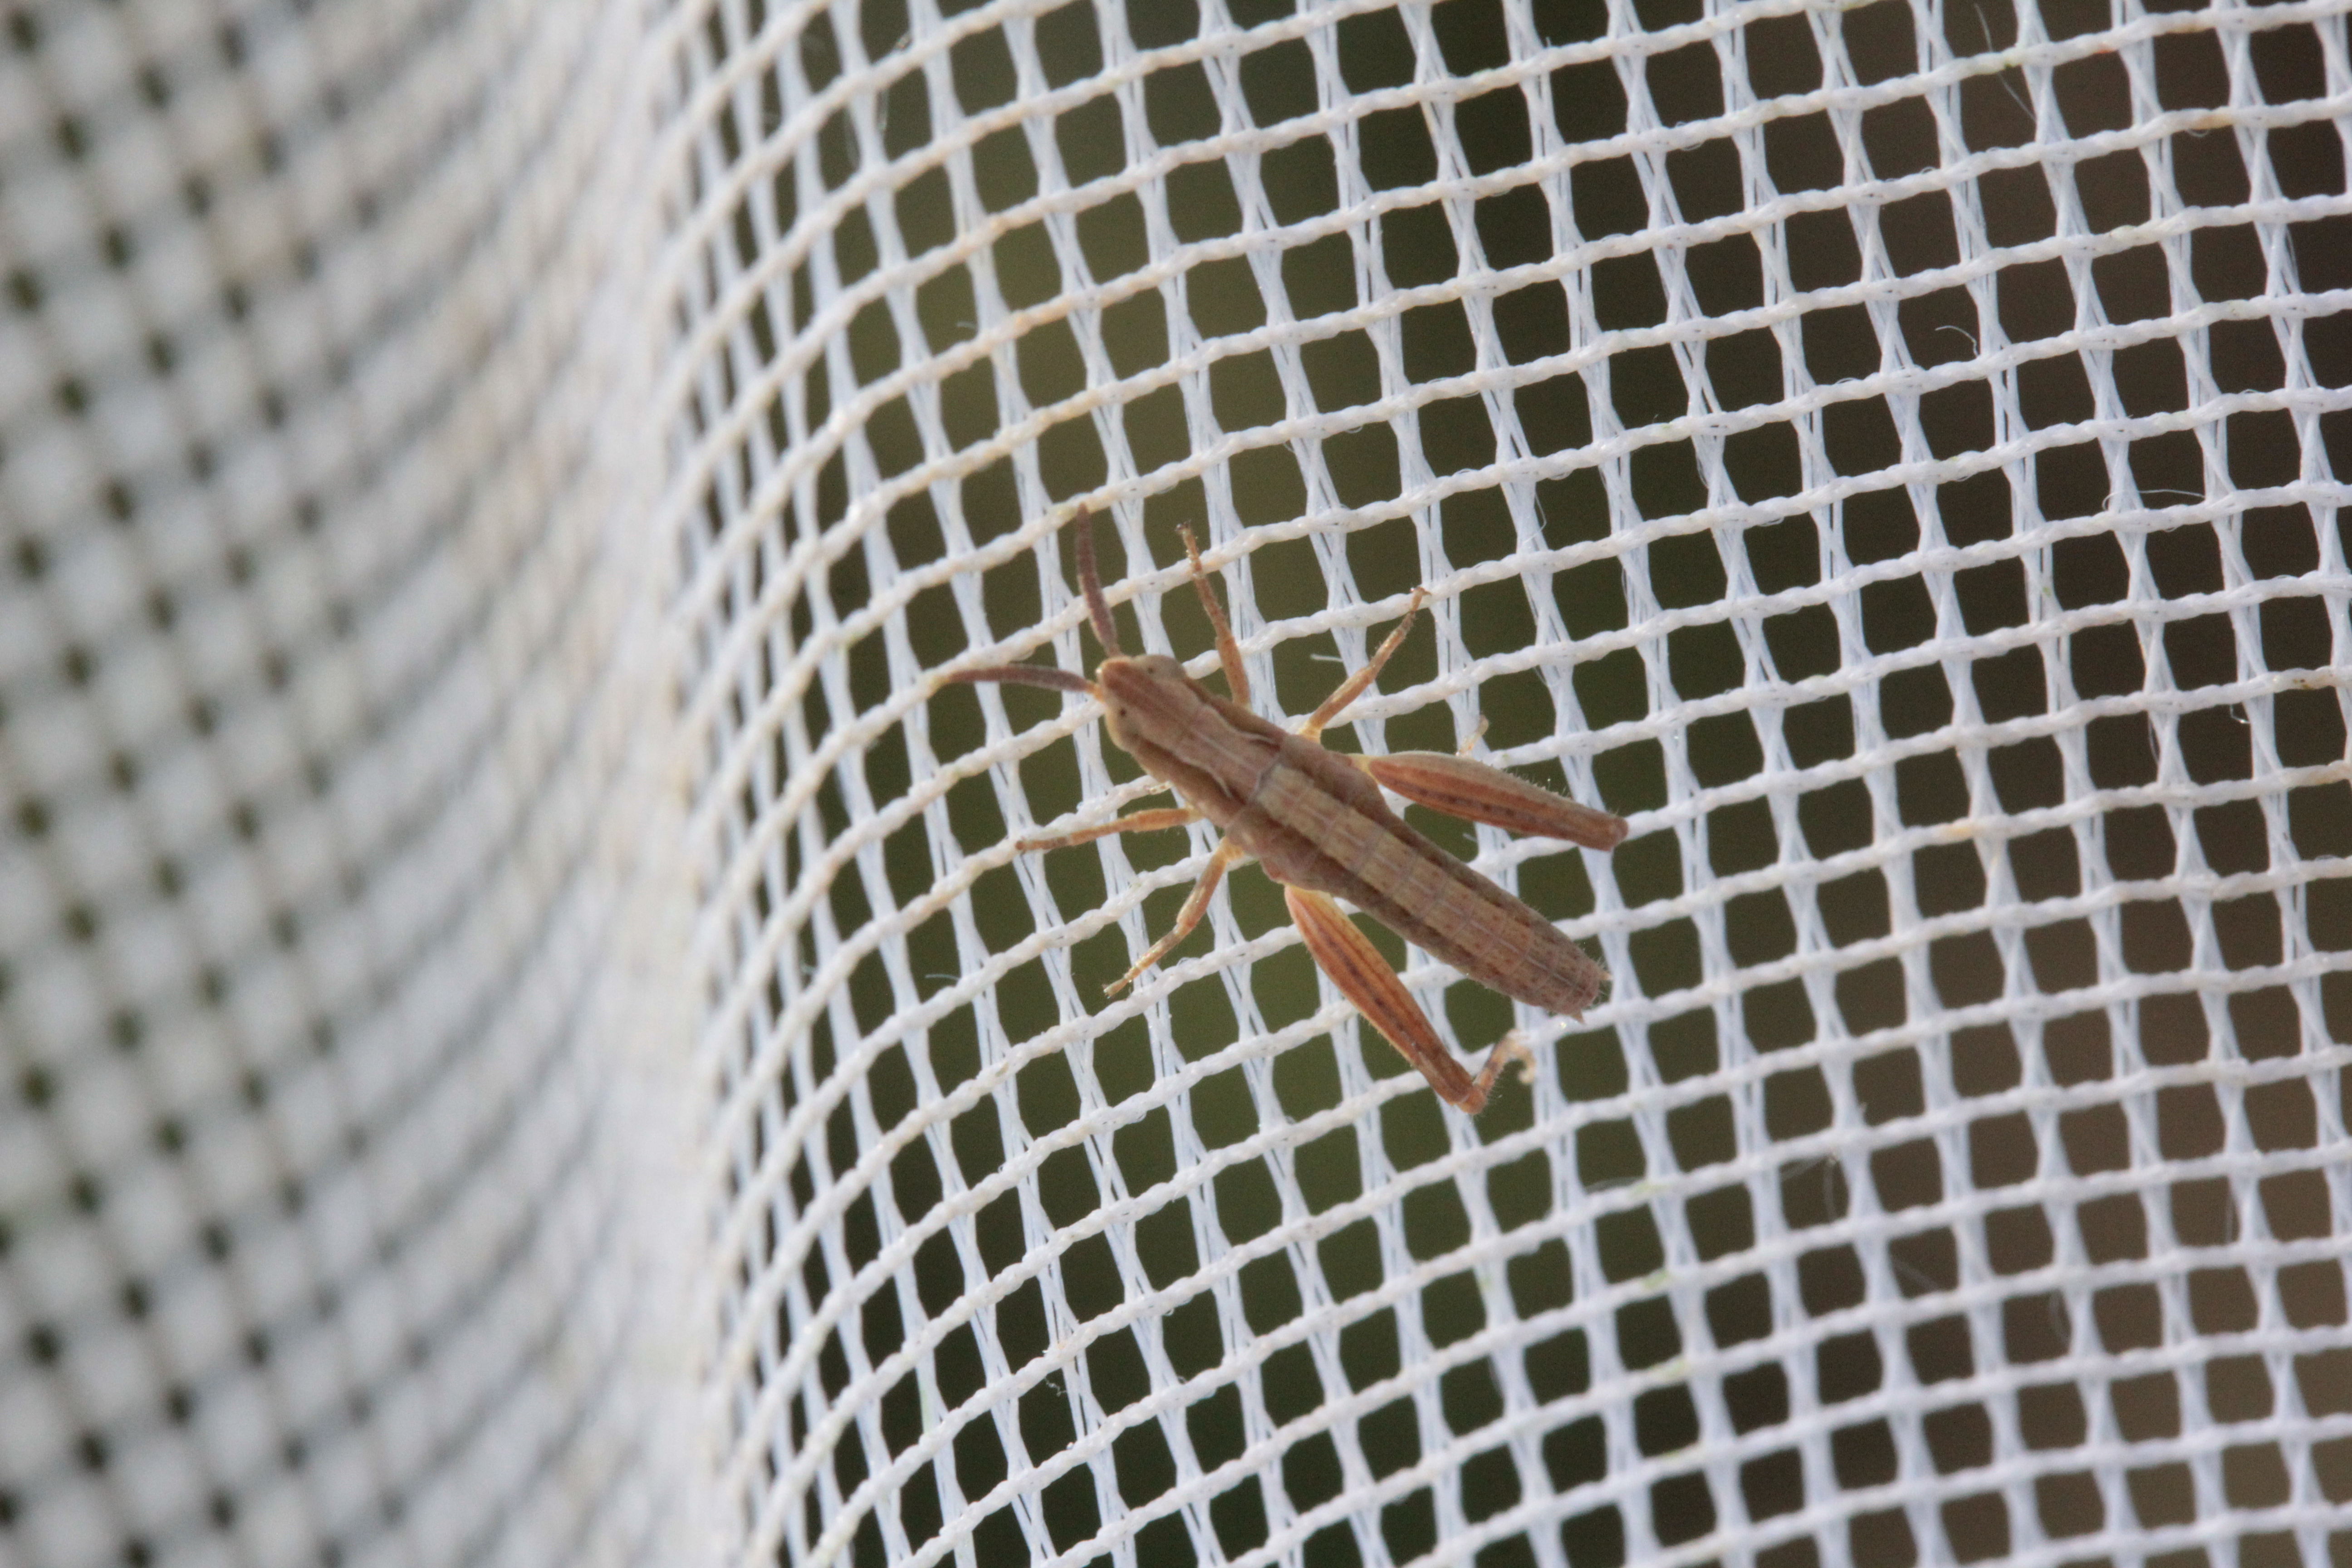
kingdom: Animalia
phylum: Arthropoda
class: Insecta
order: Orthoptera
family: Acrididae
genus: Chorthippus
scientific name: Chorthippus brunneus
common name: Field grasshopper
